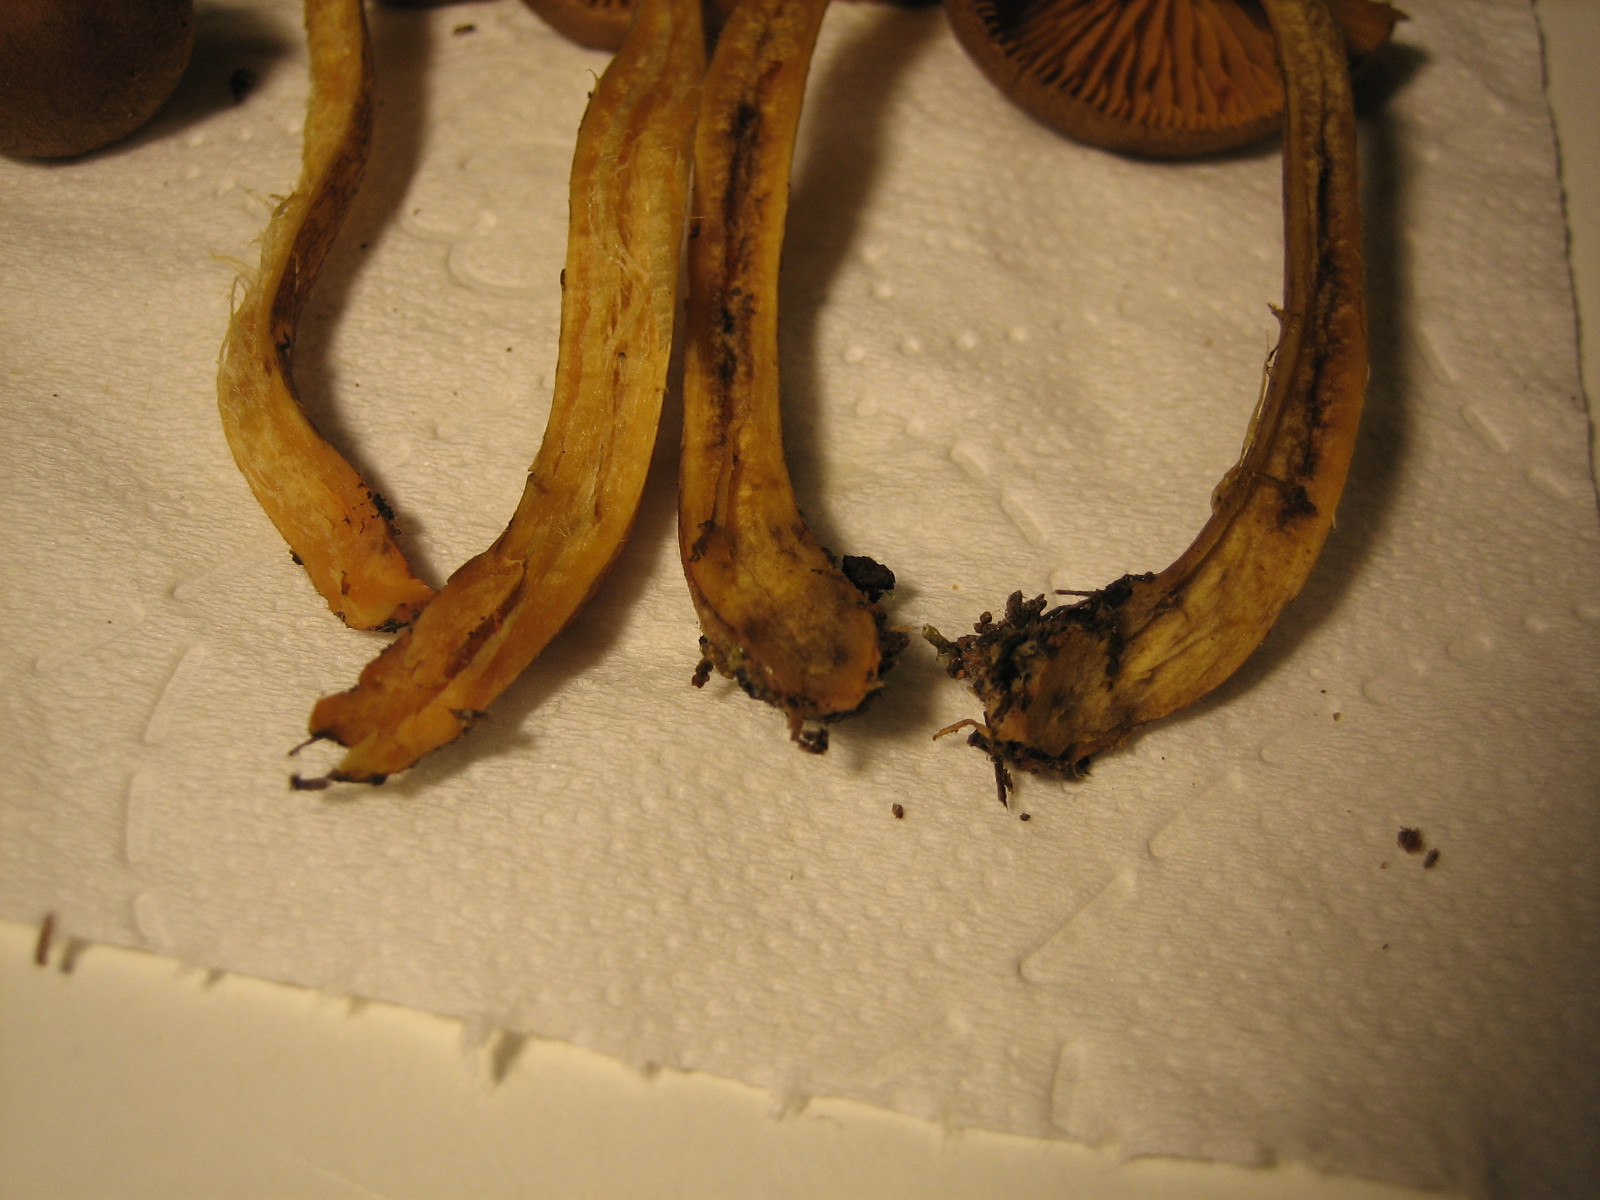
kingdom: Fungi
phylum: Basidiomycota
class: Agaricomycetes
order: Agaricales
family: Cortinariaceae
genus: Cortinarius
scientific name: Cortinarius
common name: gulbladet slørhat
